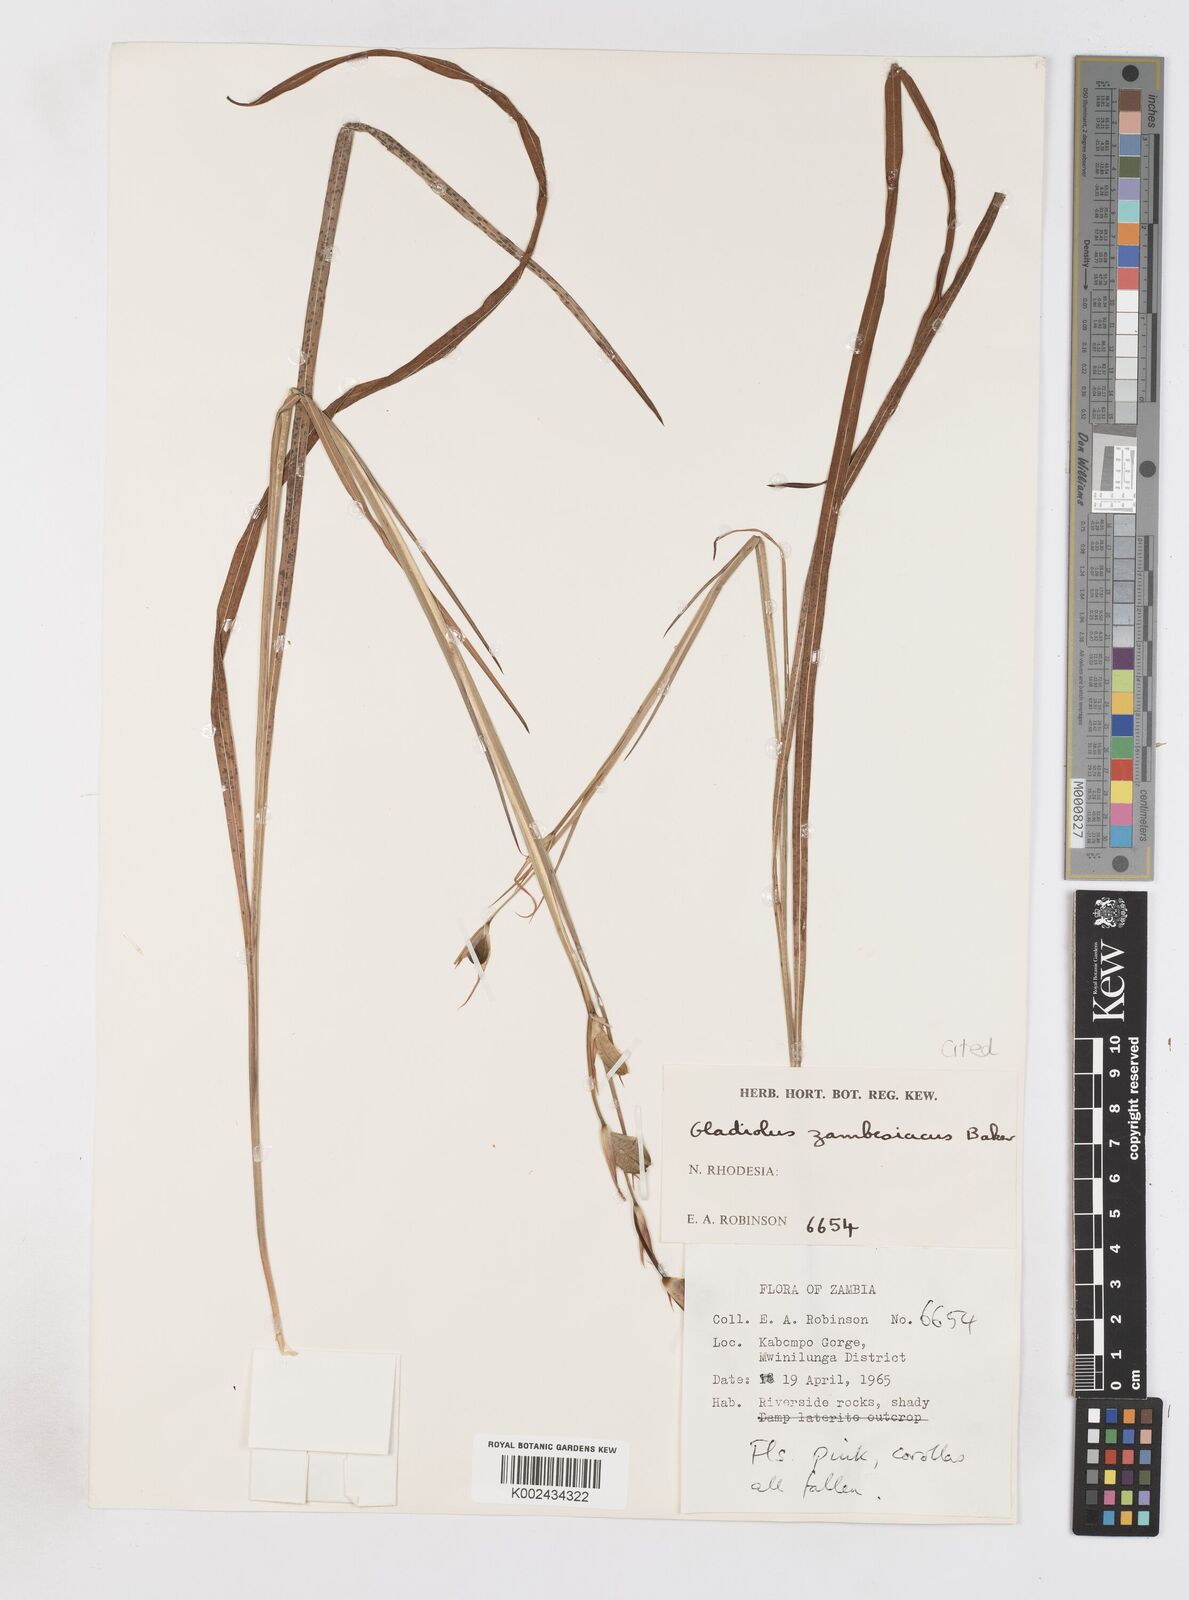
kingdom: Plantae
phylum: Tracheophyta
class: Liliopsida
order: Asparagales
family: Iridaceae
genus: Gladiolus
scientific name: Gladiolus erectiflorus
